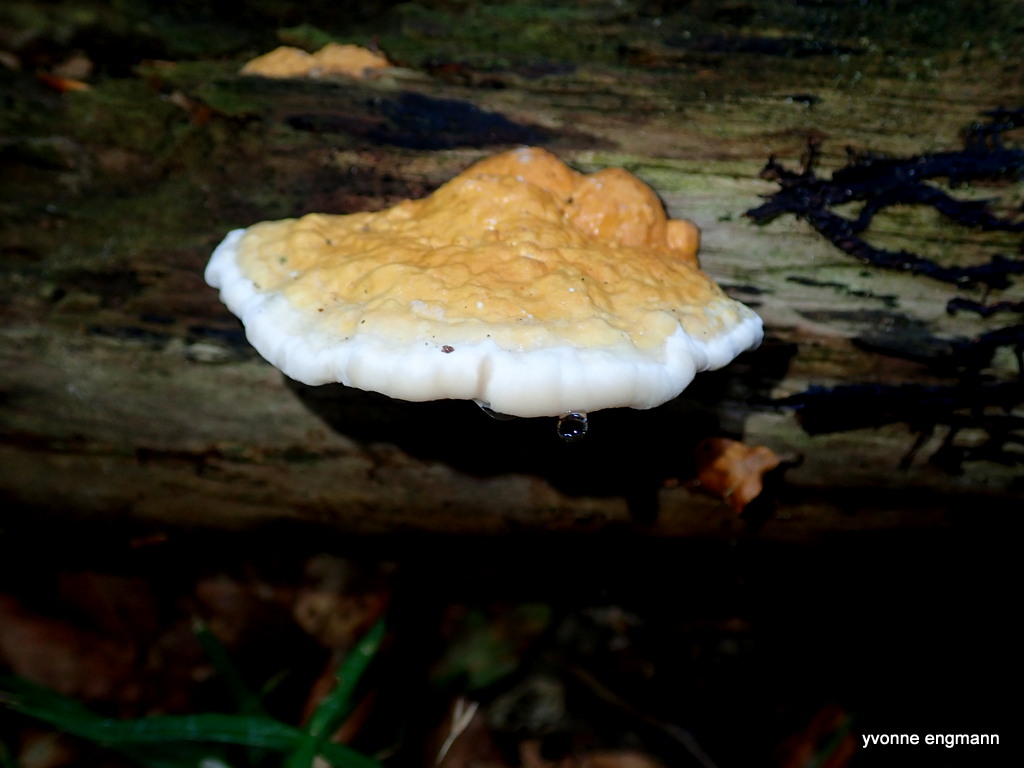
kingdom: Fungi
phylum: Basidiomycota
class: Agaricomycetes
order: Polyporales
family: Fomitopsidaceae
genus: Fomitopsis
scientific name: Fomitopsis pinicola
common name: randbæltet hovporesvamp
